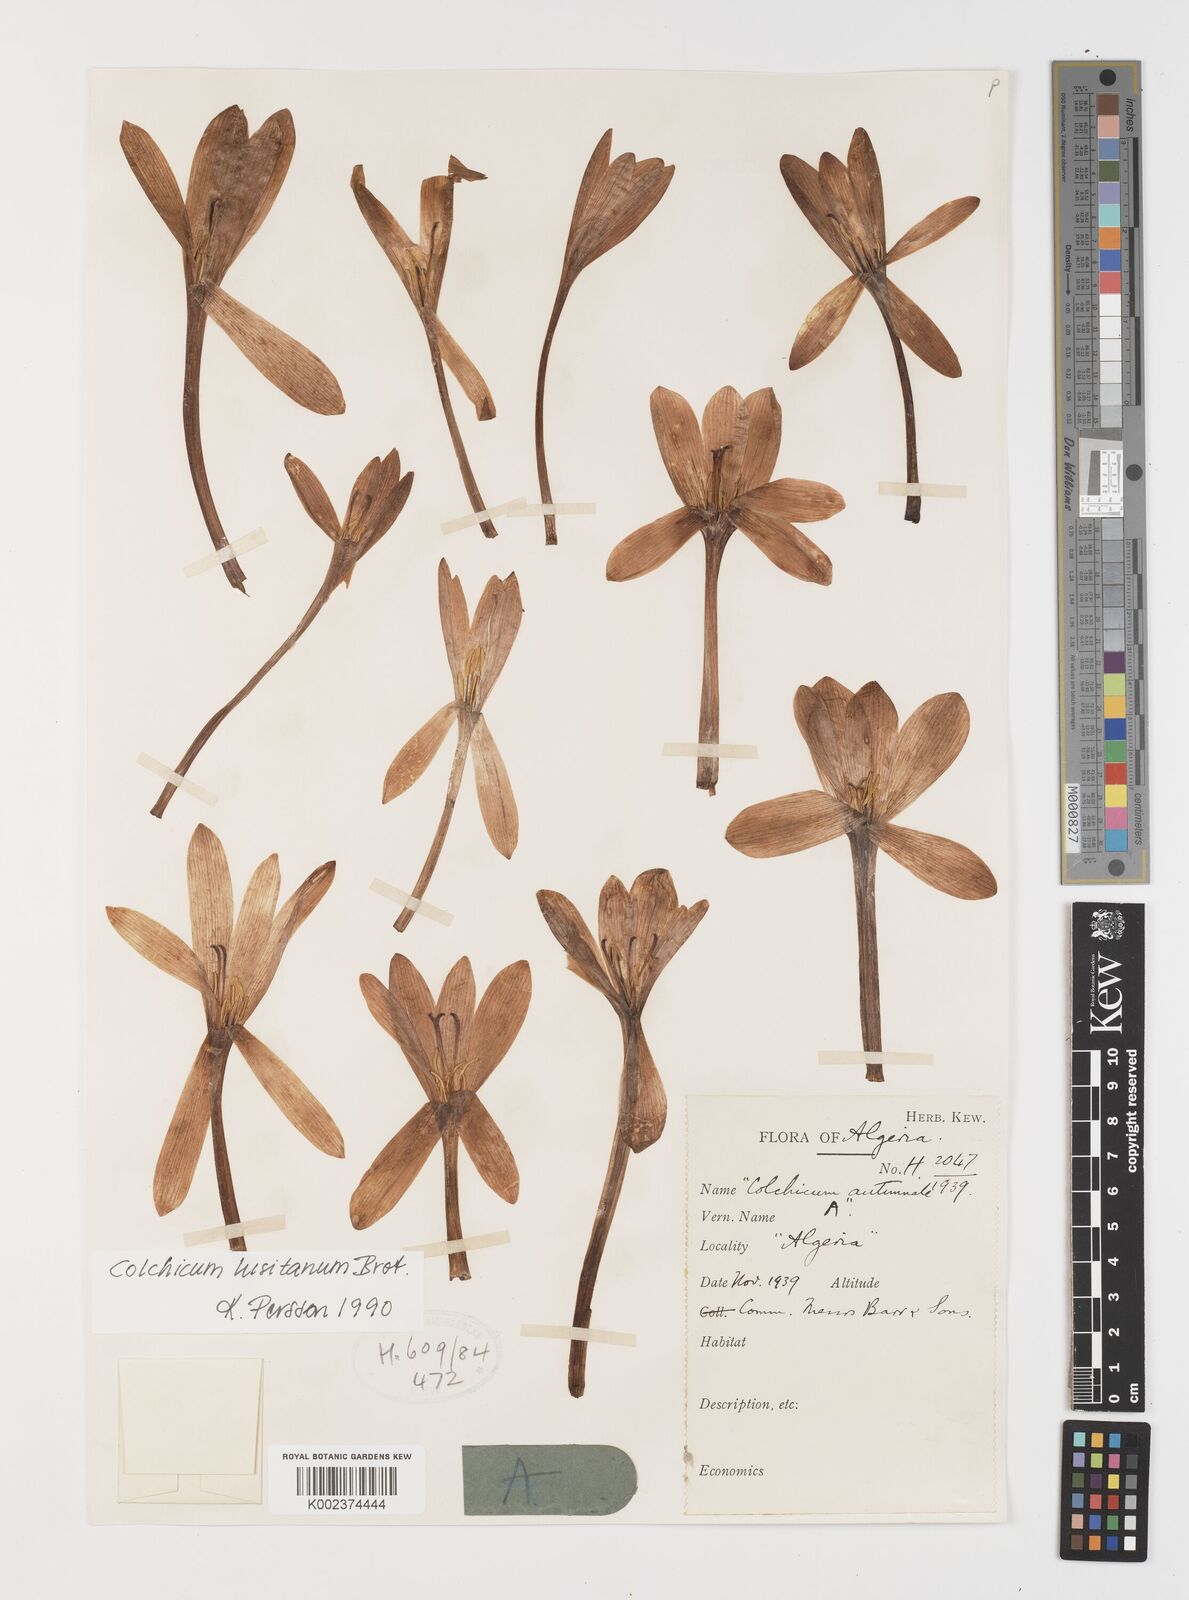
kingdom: Plantae
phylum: Tracheophyta
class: Liliopsida
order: Liliales
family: Colchicaceae
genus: Colchicum
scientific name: Colchicum lusitanum
